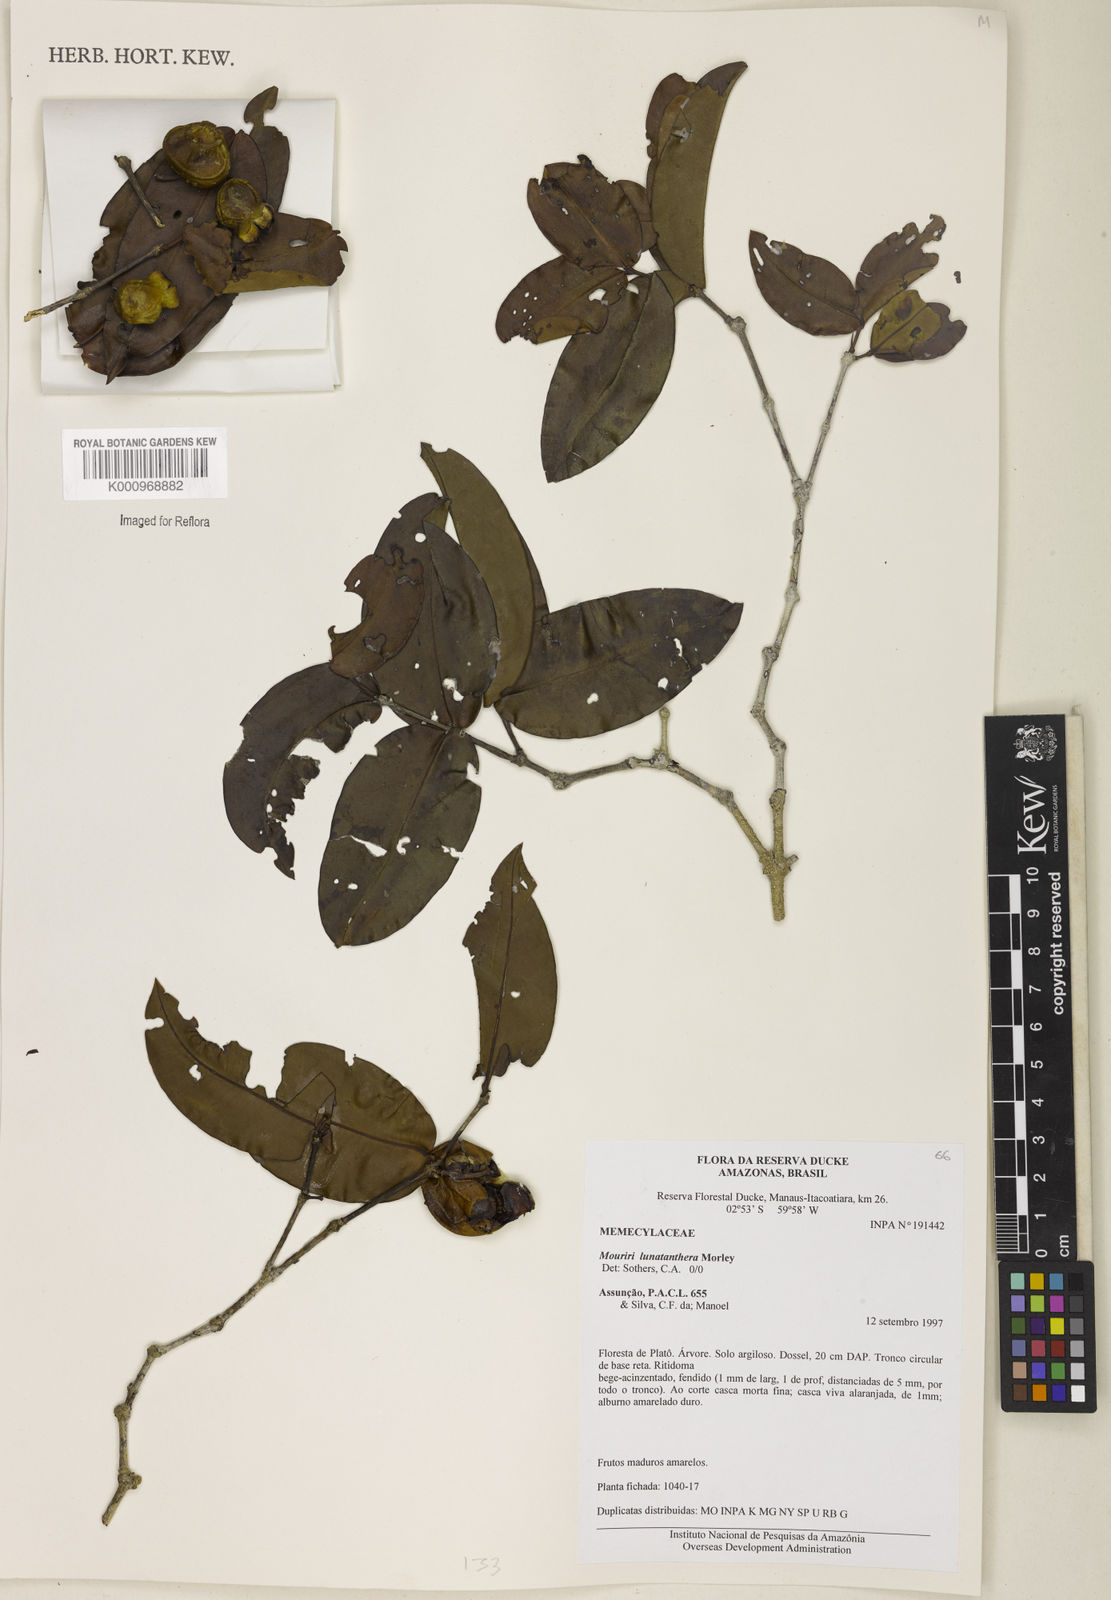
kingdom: Plantae
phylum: Tracheophyta
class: Magnoliopsida
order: Myrtales
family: Melastomataceae
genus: Mouriri
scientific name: Mouriri
